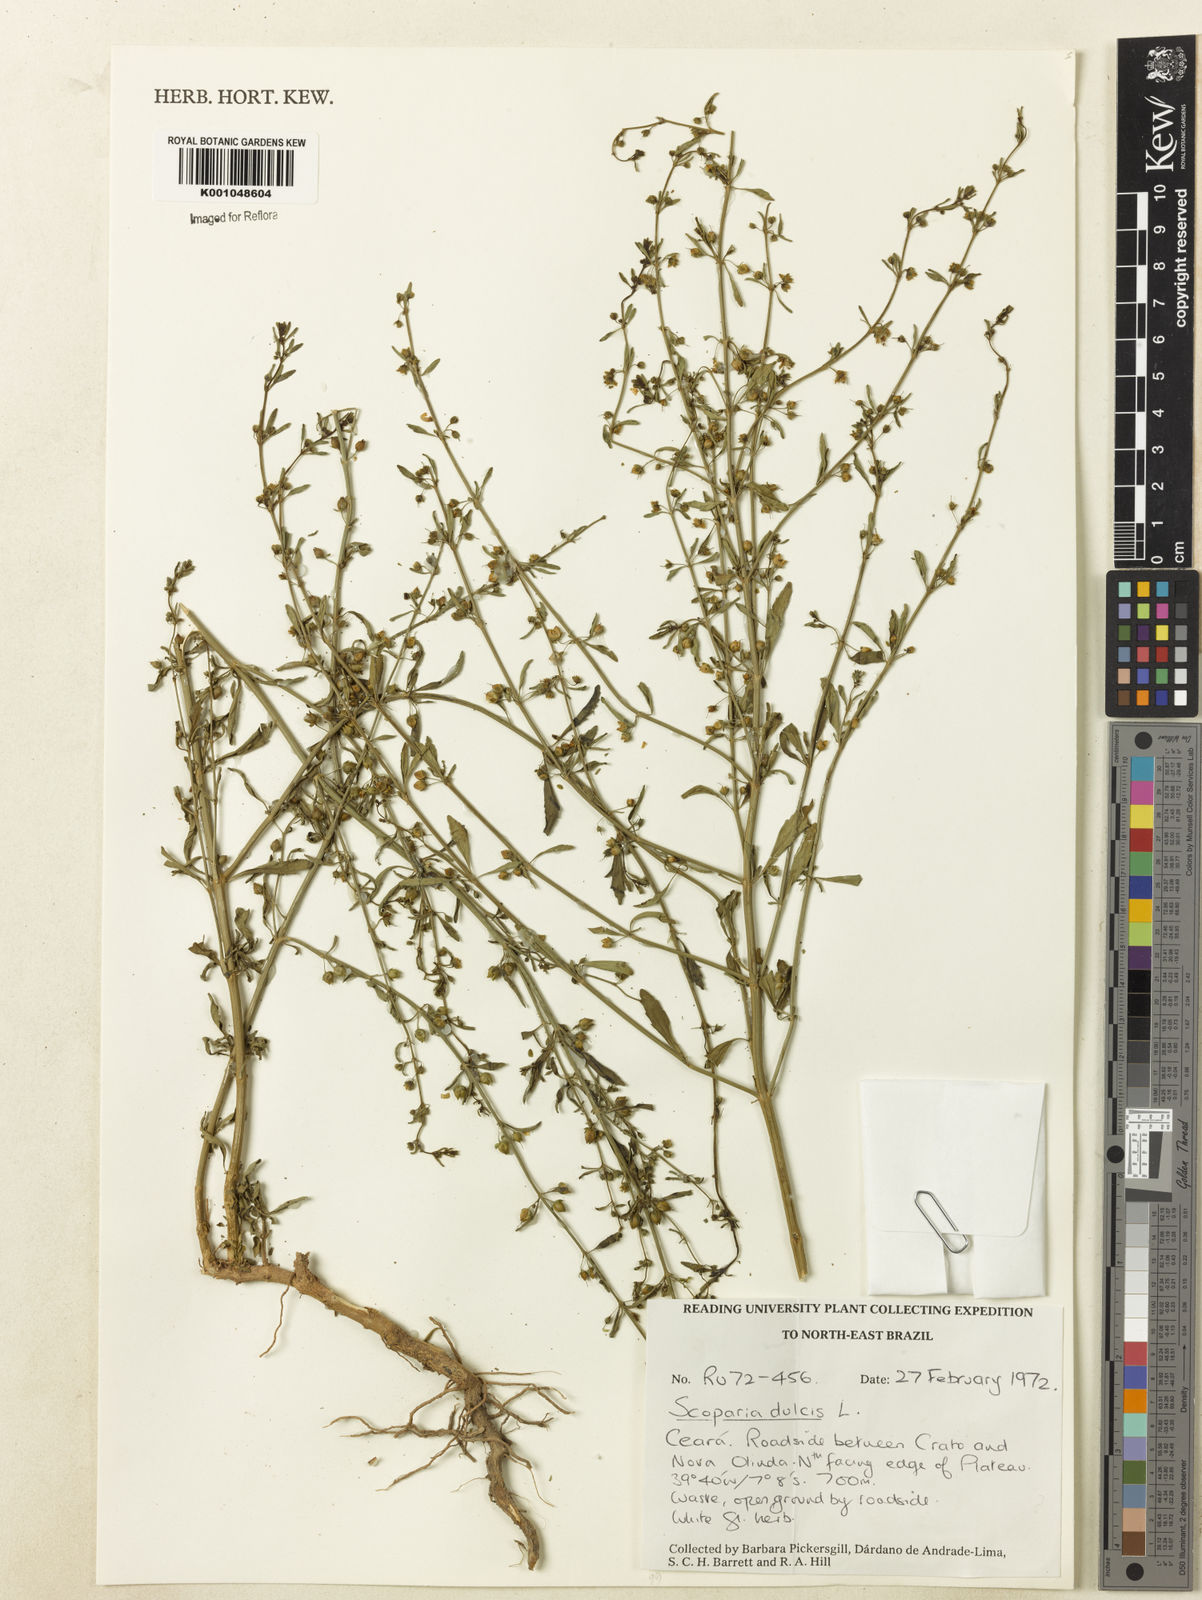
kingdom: Plantae
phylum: Tracheophyta
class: Magnoliopsida
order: Lamiales
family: Plantaginaceae
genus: Scoparia
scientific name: Scoparia dulcis
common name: Scoparia-weed
